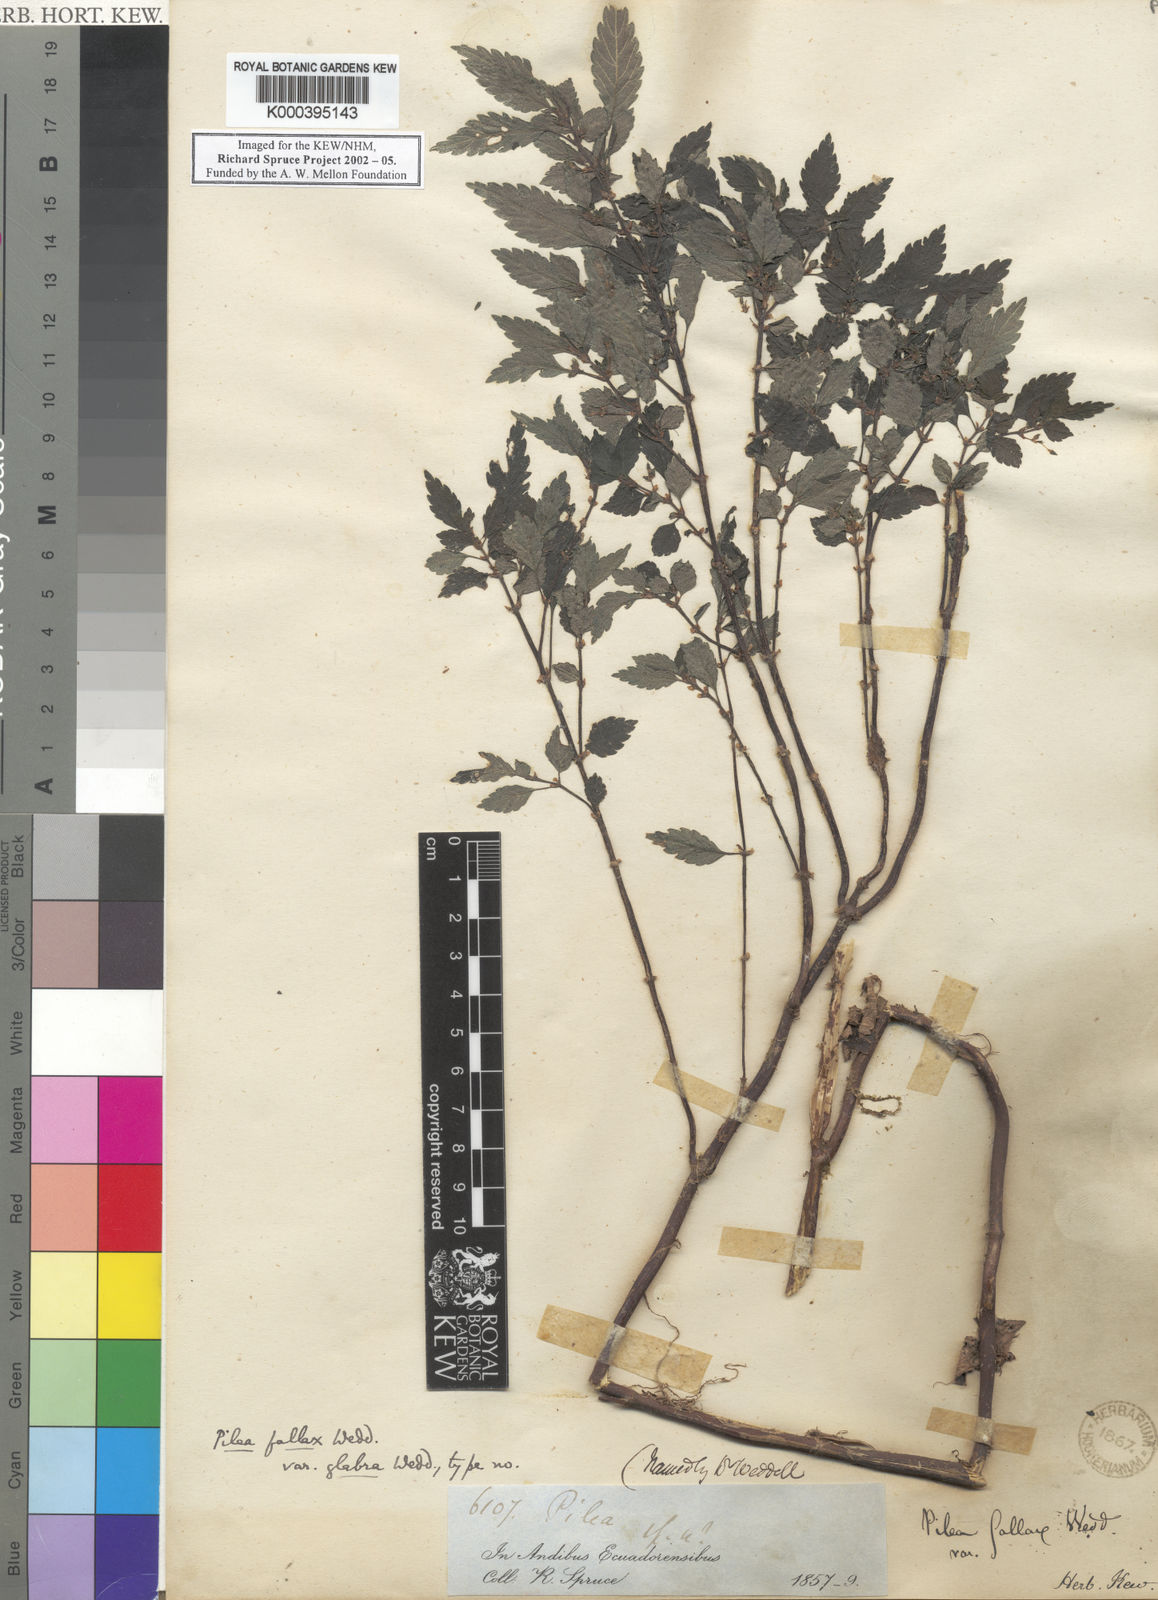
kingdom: Plantae
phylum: Tracheophyta
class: Magnoliopsida
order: Rosales
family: Urticaceae
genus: Pilea
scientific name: Pilea fallax
